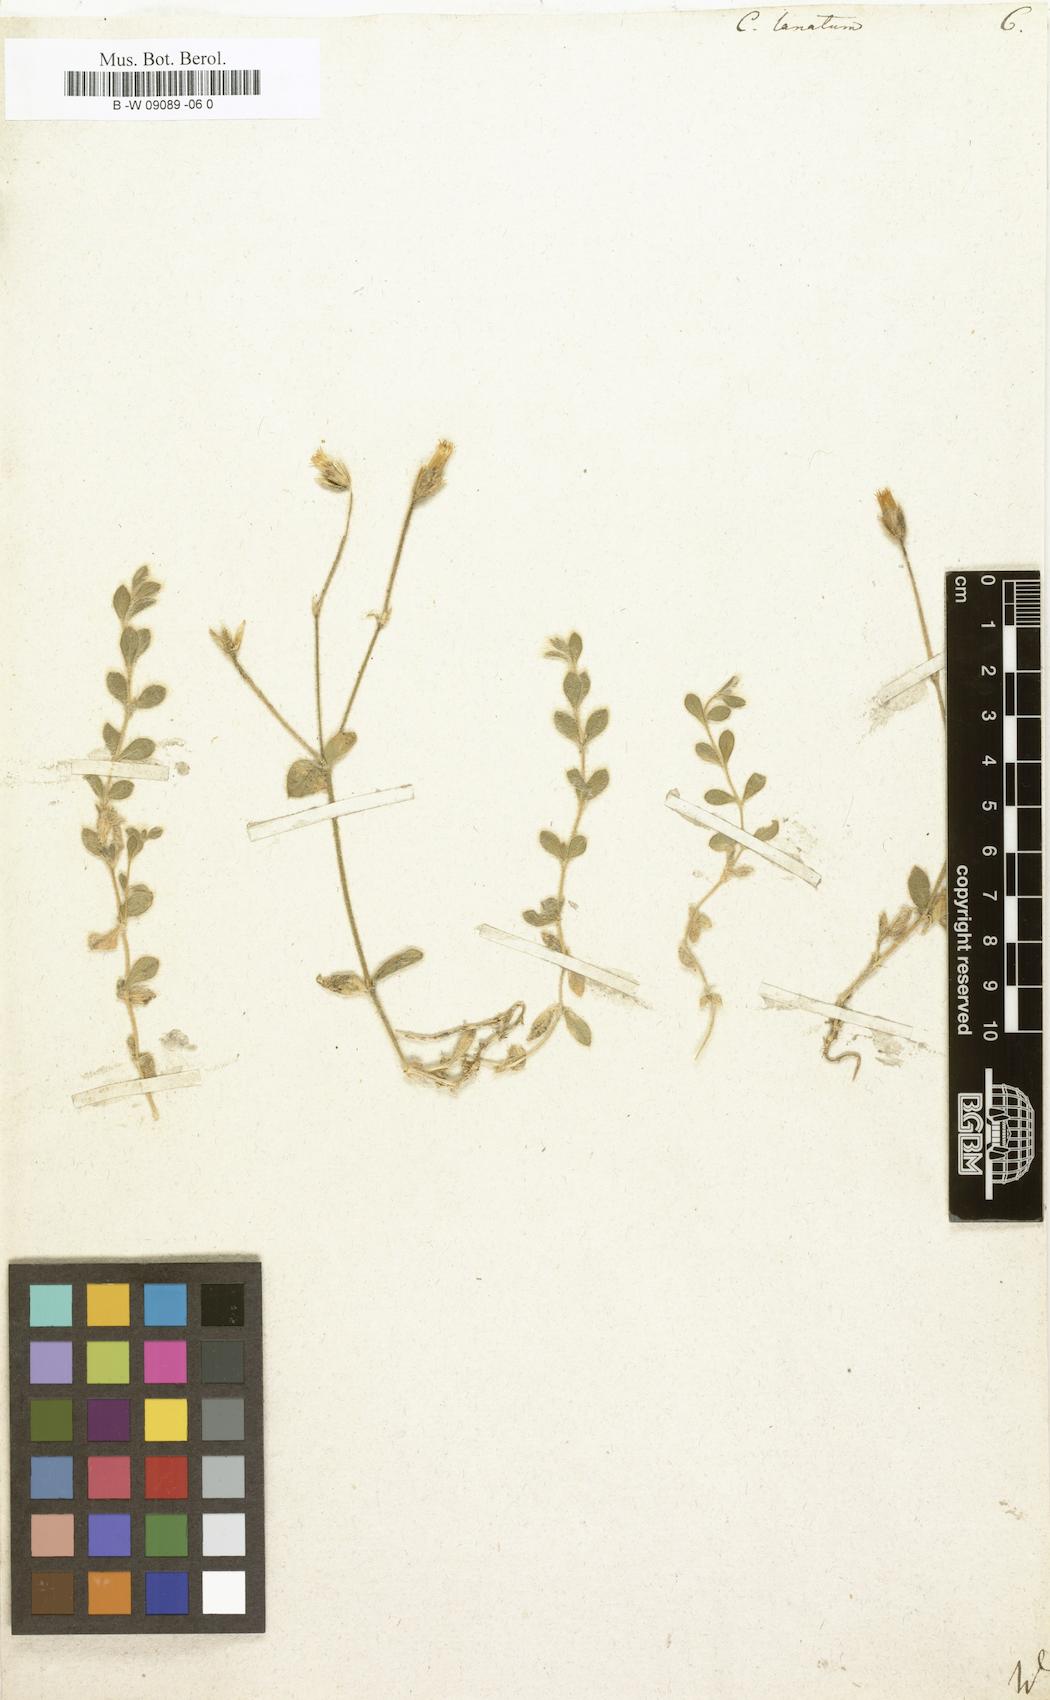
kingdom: Plantae
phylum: Tracheophyta
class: Magnoliopsida
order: Caryophyllales
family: Caryophyllaceae
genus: Cerastium
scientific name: Cerastium alpinum
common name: Alpine mouse-ear
